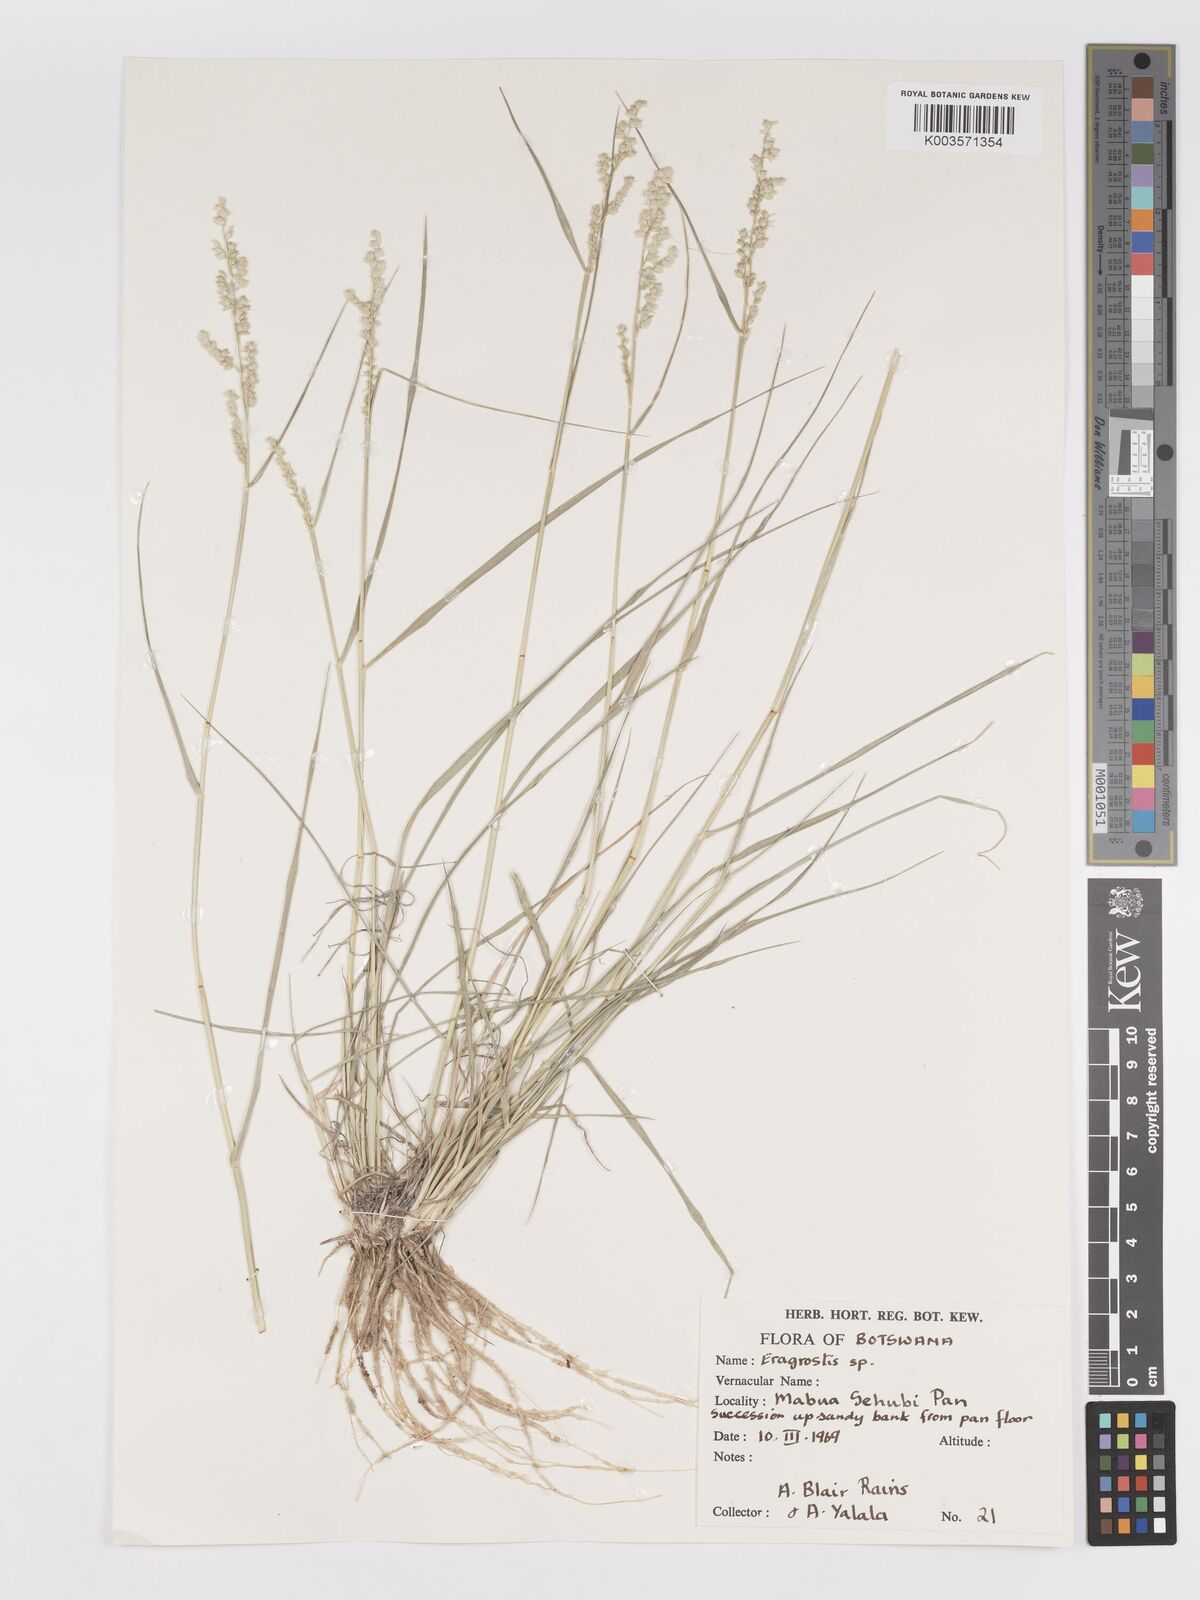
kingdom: Plantae
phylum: Tracheophyta
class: Liliopsida
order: Poales
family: Poaceae
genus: Eragrostis
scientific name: Eragrostis echinochloidea
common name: African lovegrass
